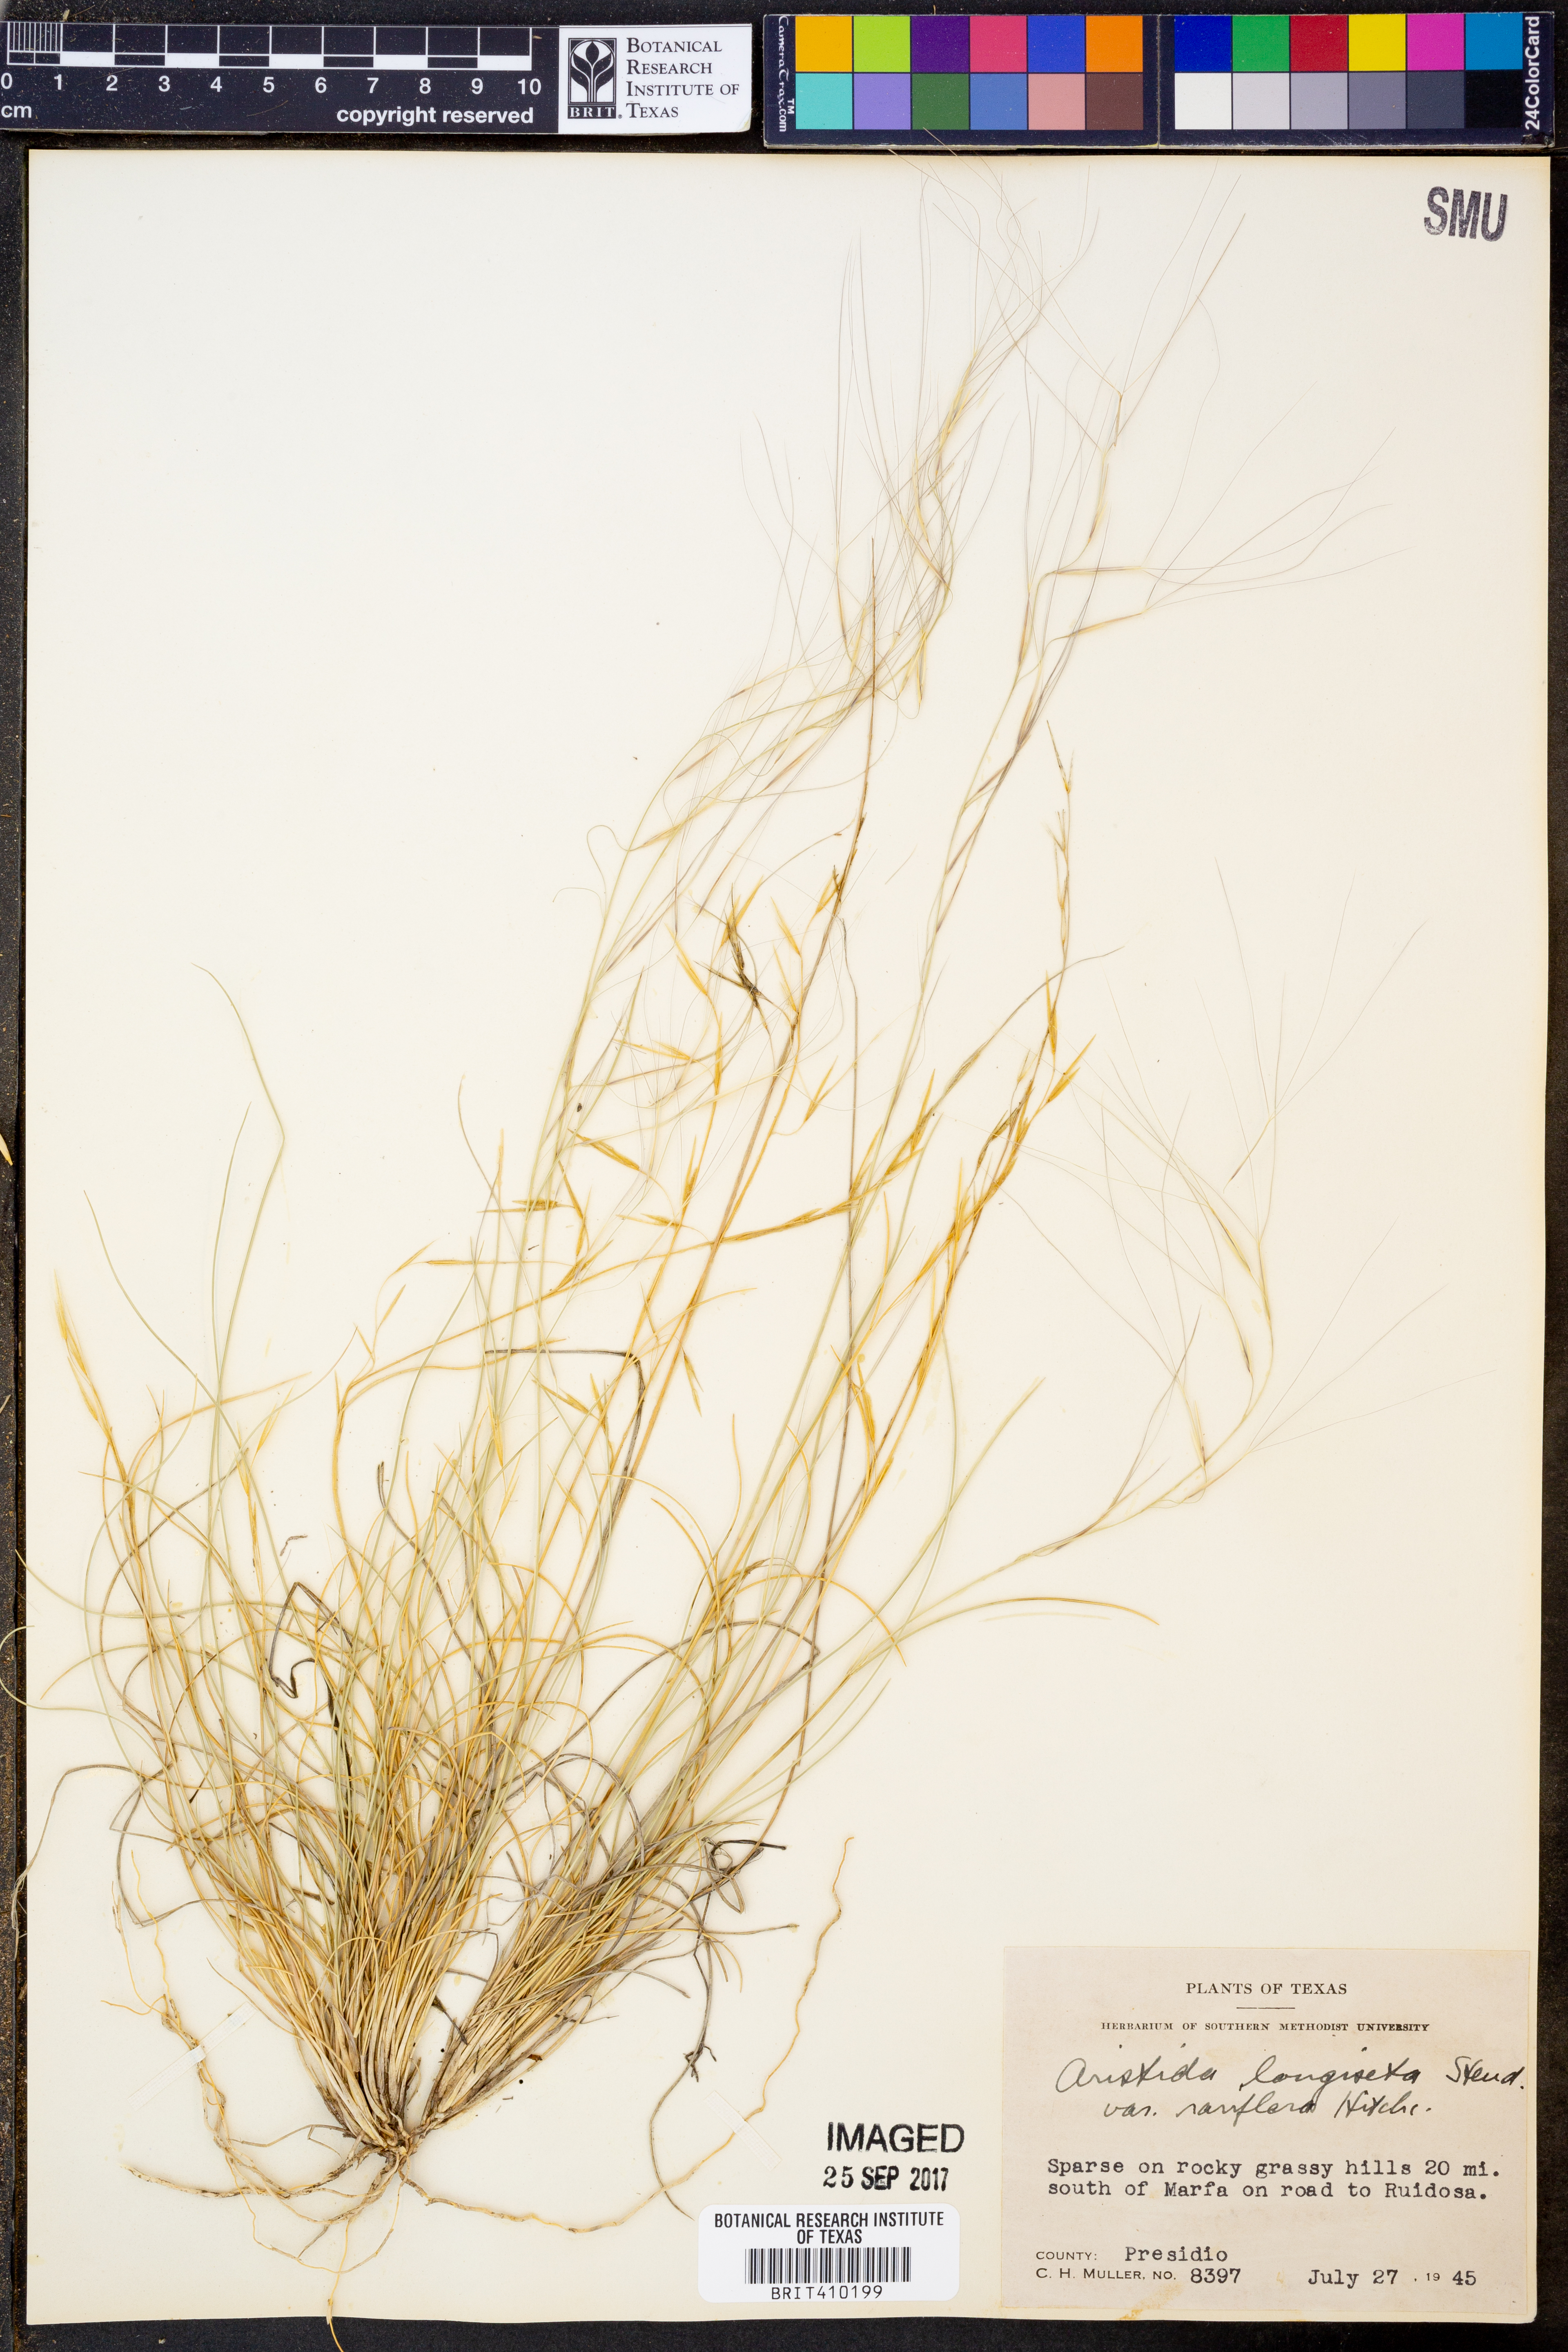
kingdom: Plantae
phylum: Tracheophyta
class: Liliopsida
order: Poales
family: Poaceae
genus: Aristida
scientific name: Aristida longiseta
